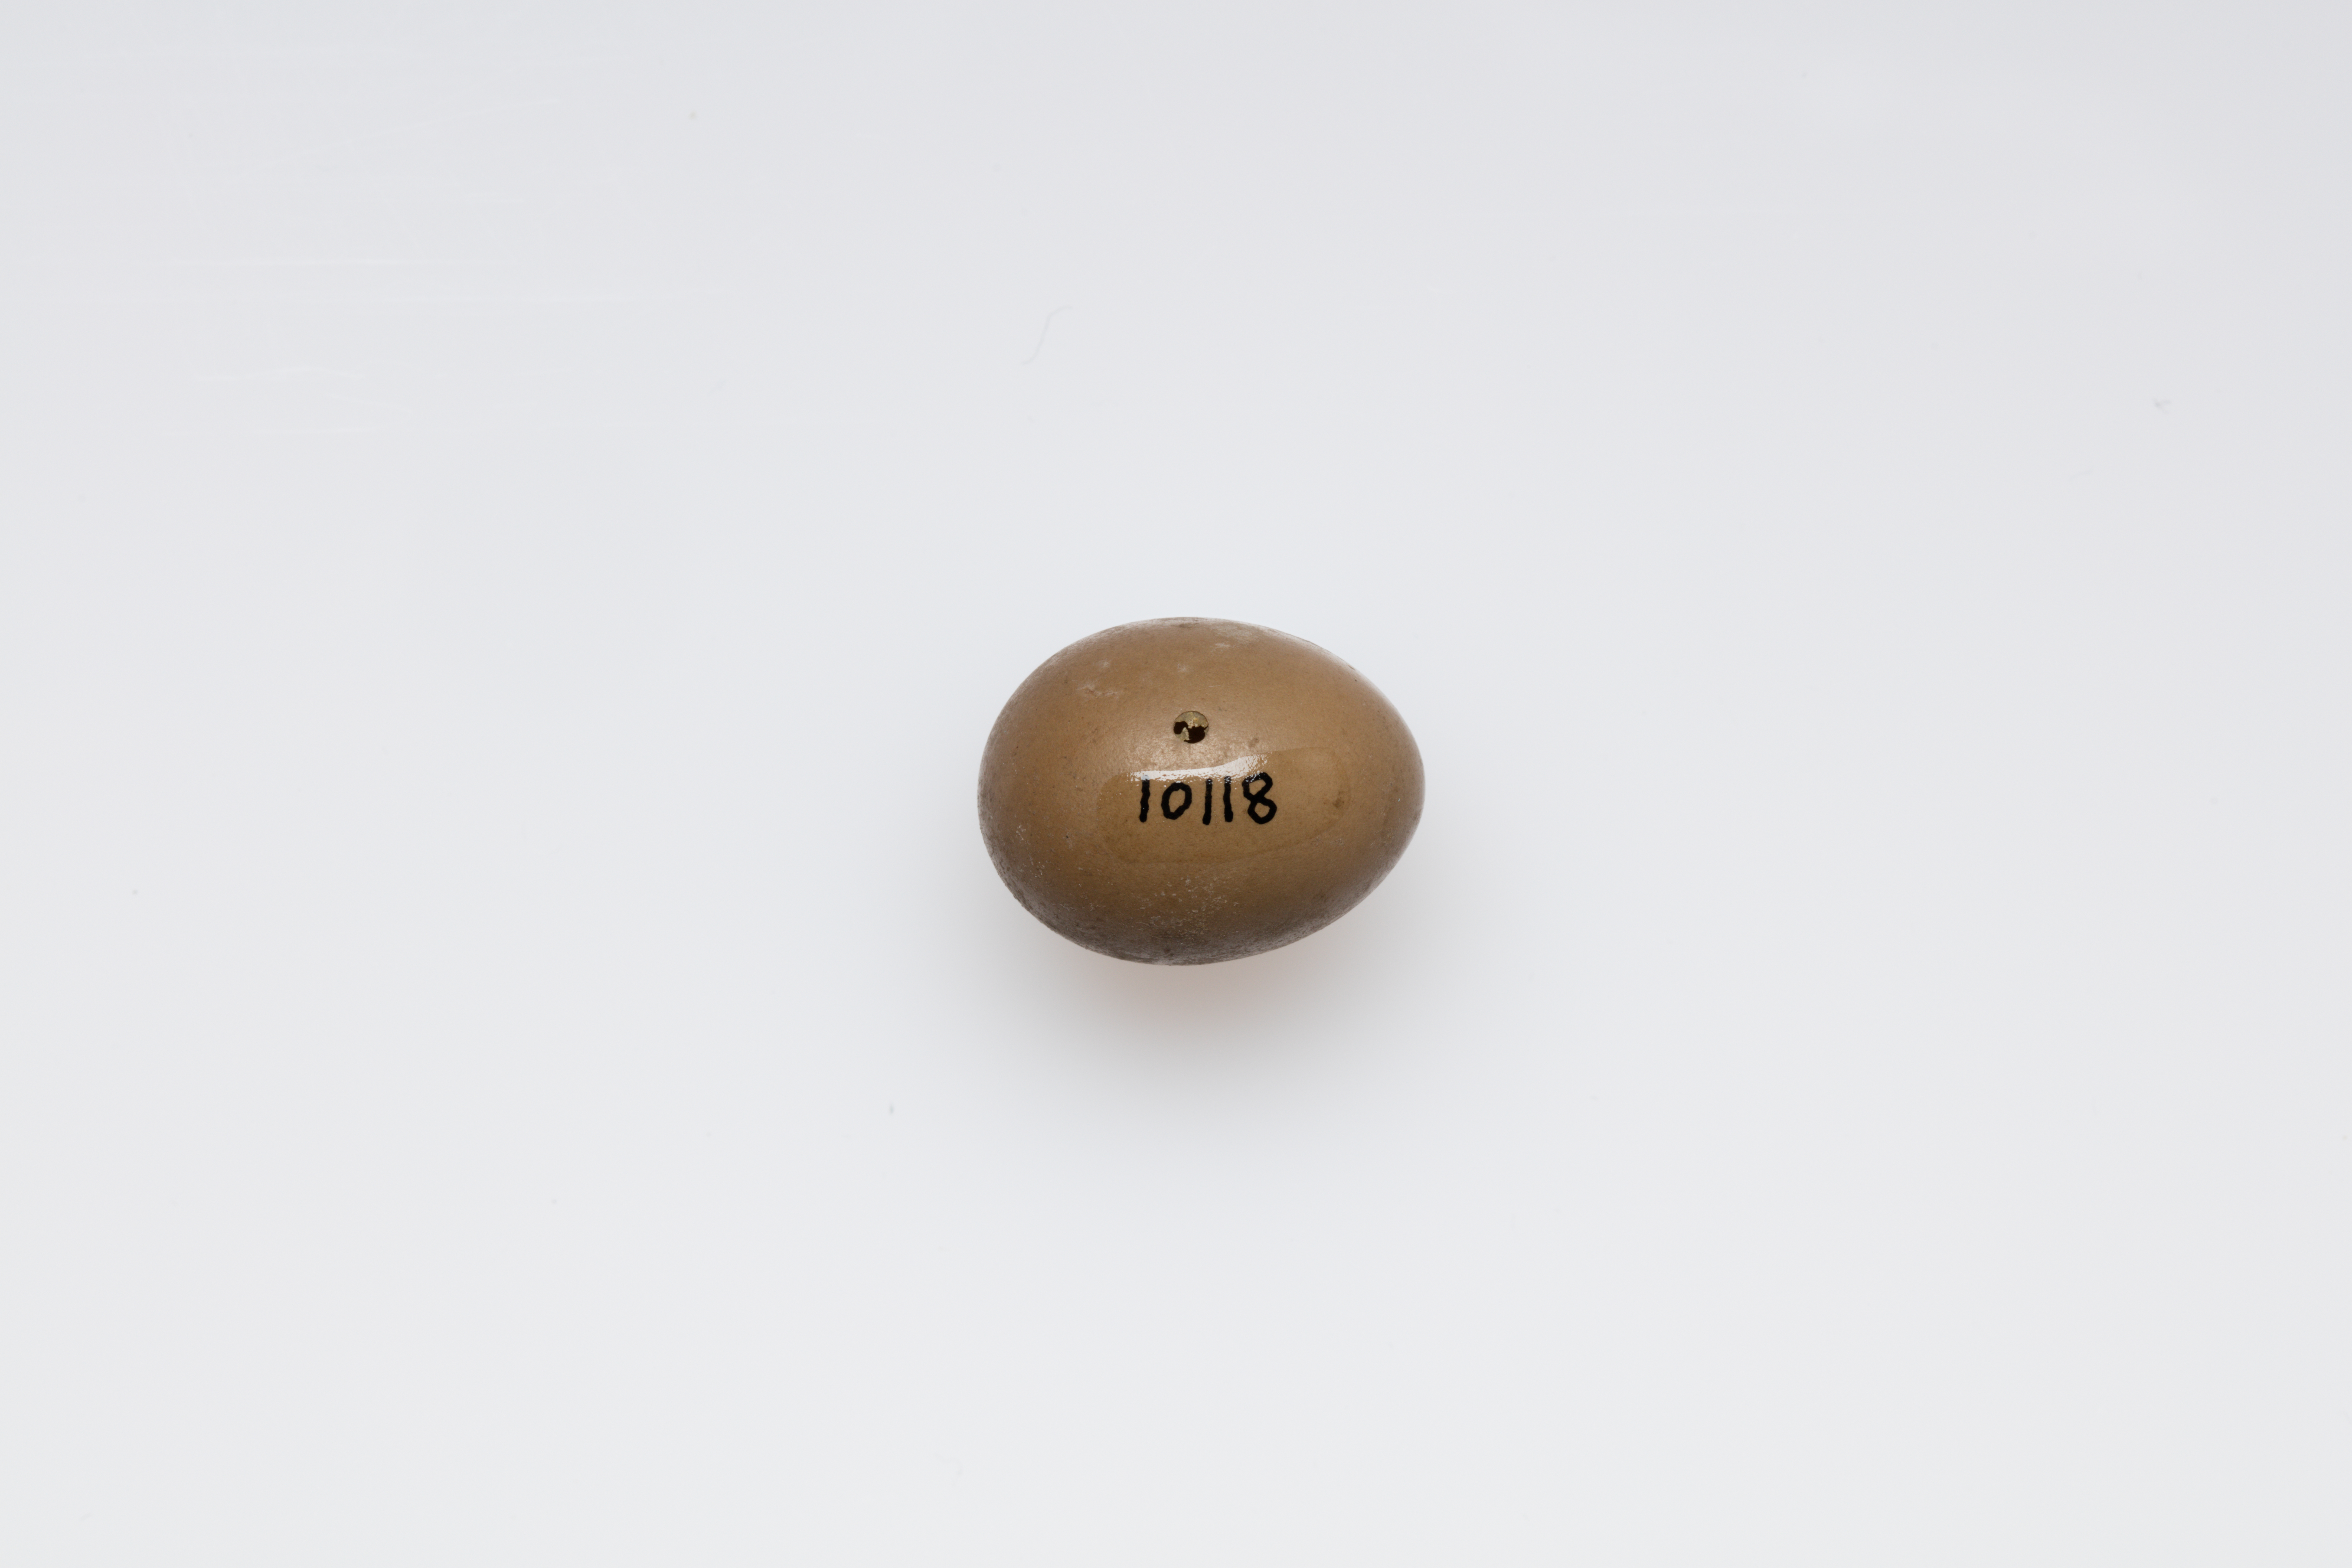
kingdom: Animalia
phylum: Chordata
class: Aves
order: Passeriformes
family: Muscicapidae
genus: Luscinia
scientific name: Luscinia megarhynchos
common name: Common nightingale
